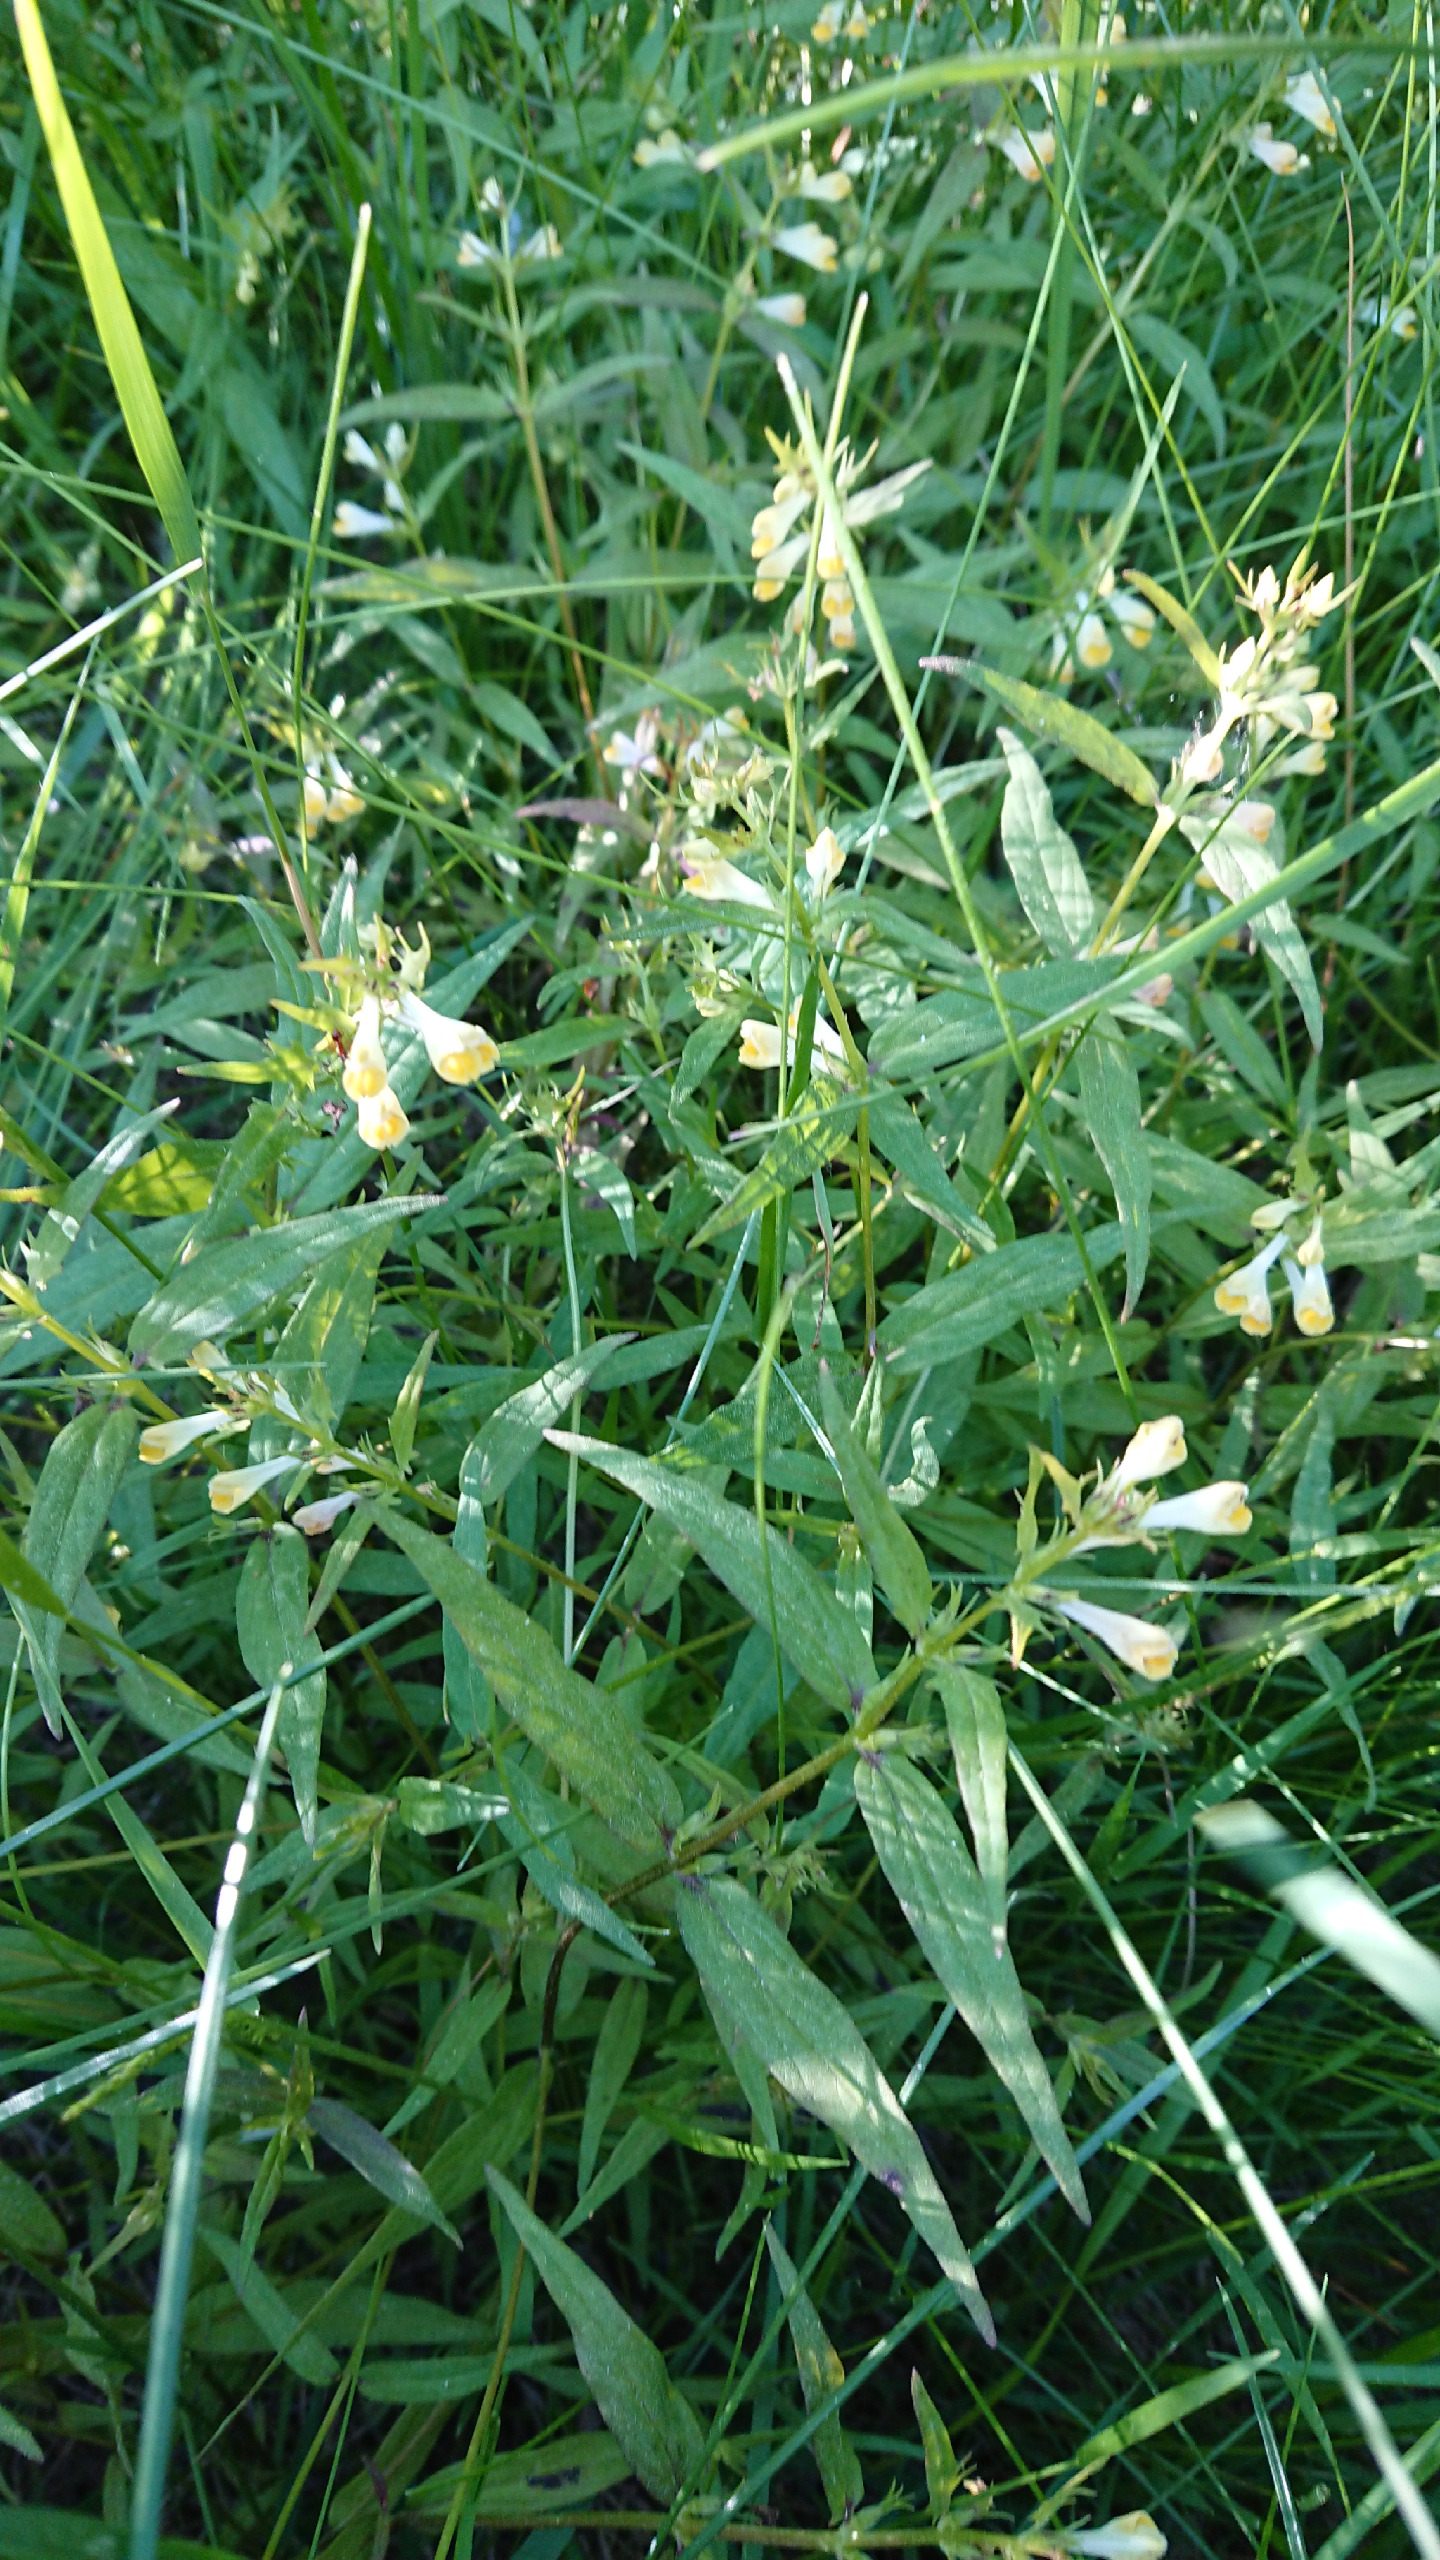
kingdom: Plantae
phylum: Tracheophyta
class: Magnoliopsida
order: Lamiales
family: Orobanchaceae
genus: Melampyrum
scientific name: Melampyrum pratense
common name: Almindelig kohvede
